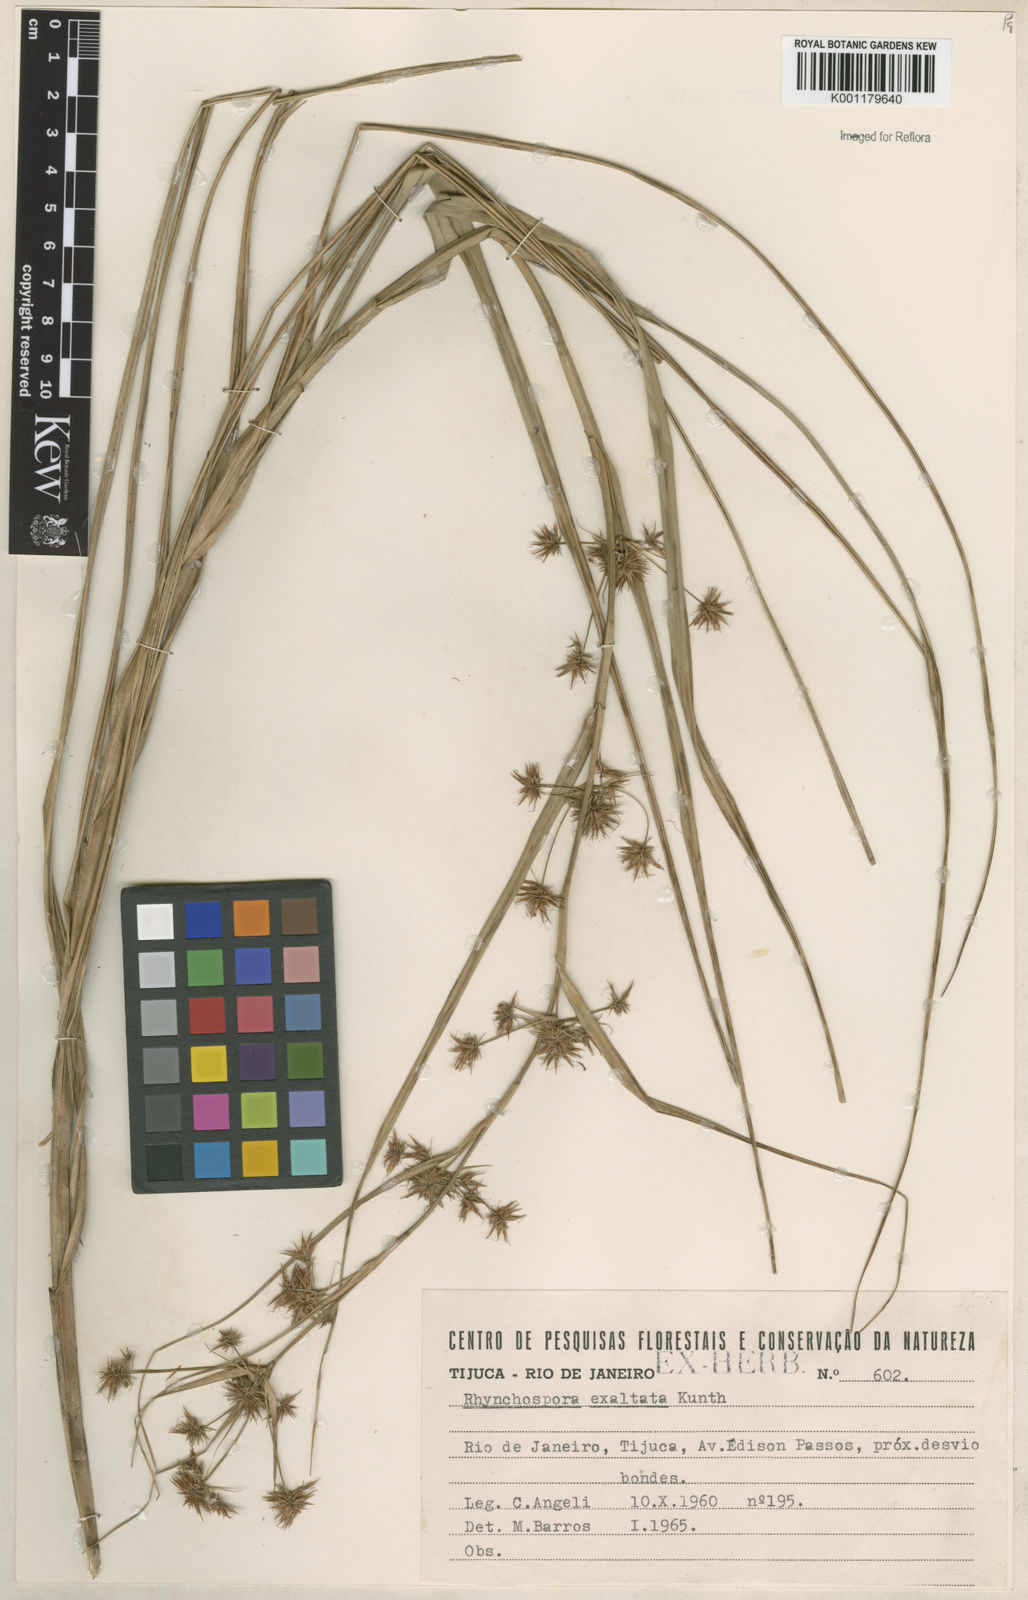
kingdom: Plantae
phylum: Tracheophyta
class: Liliopsida
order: Poales
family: Cyperaceae
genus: Rhynchospora
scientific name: Rhynchospora exaltata
